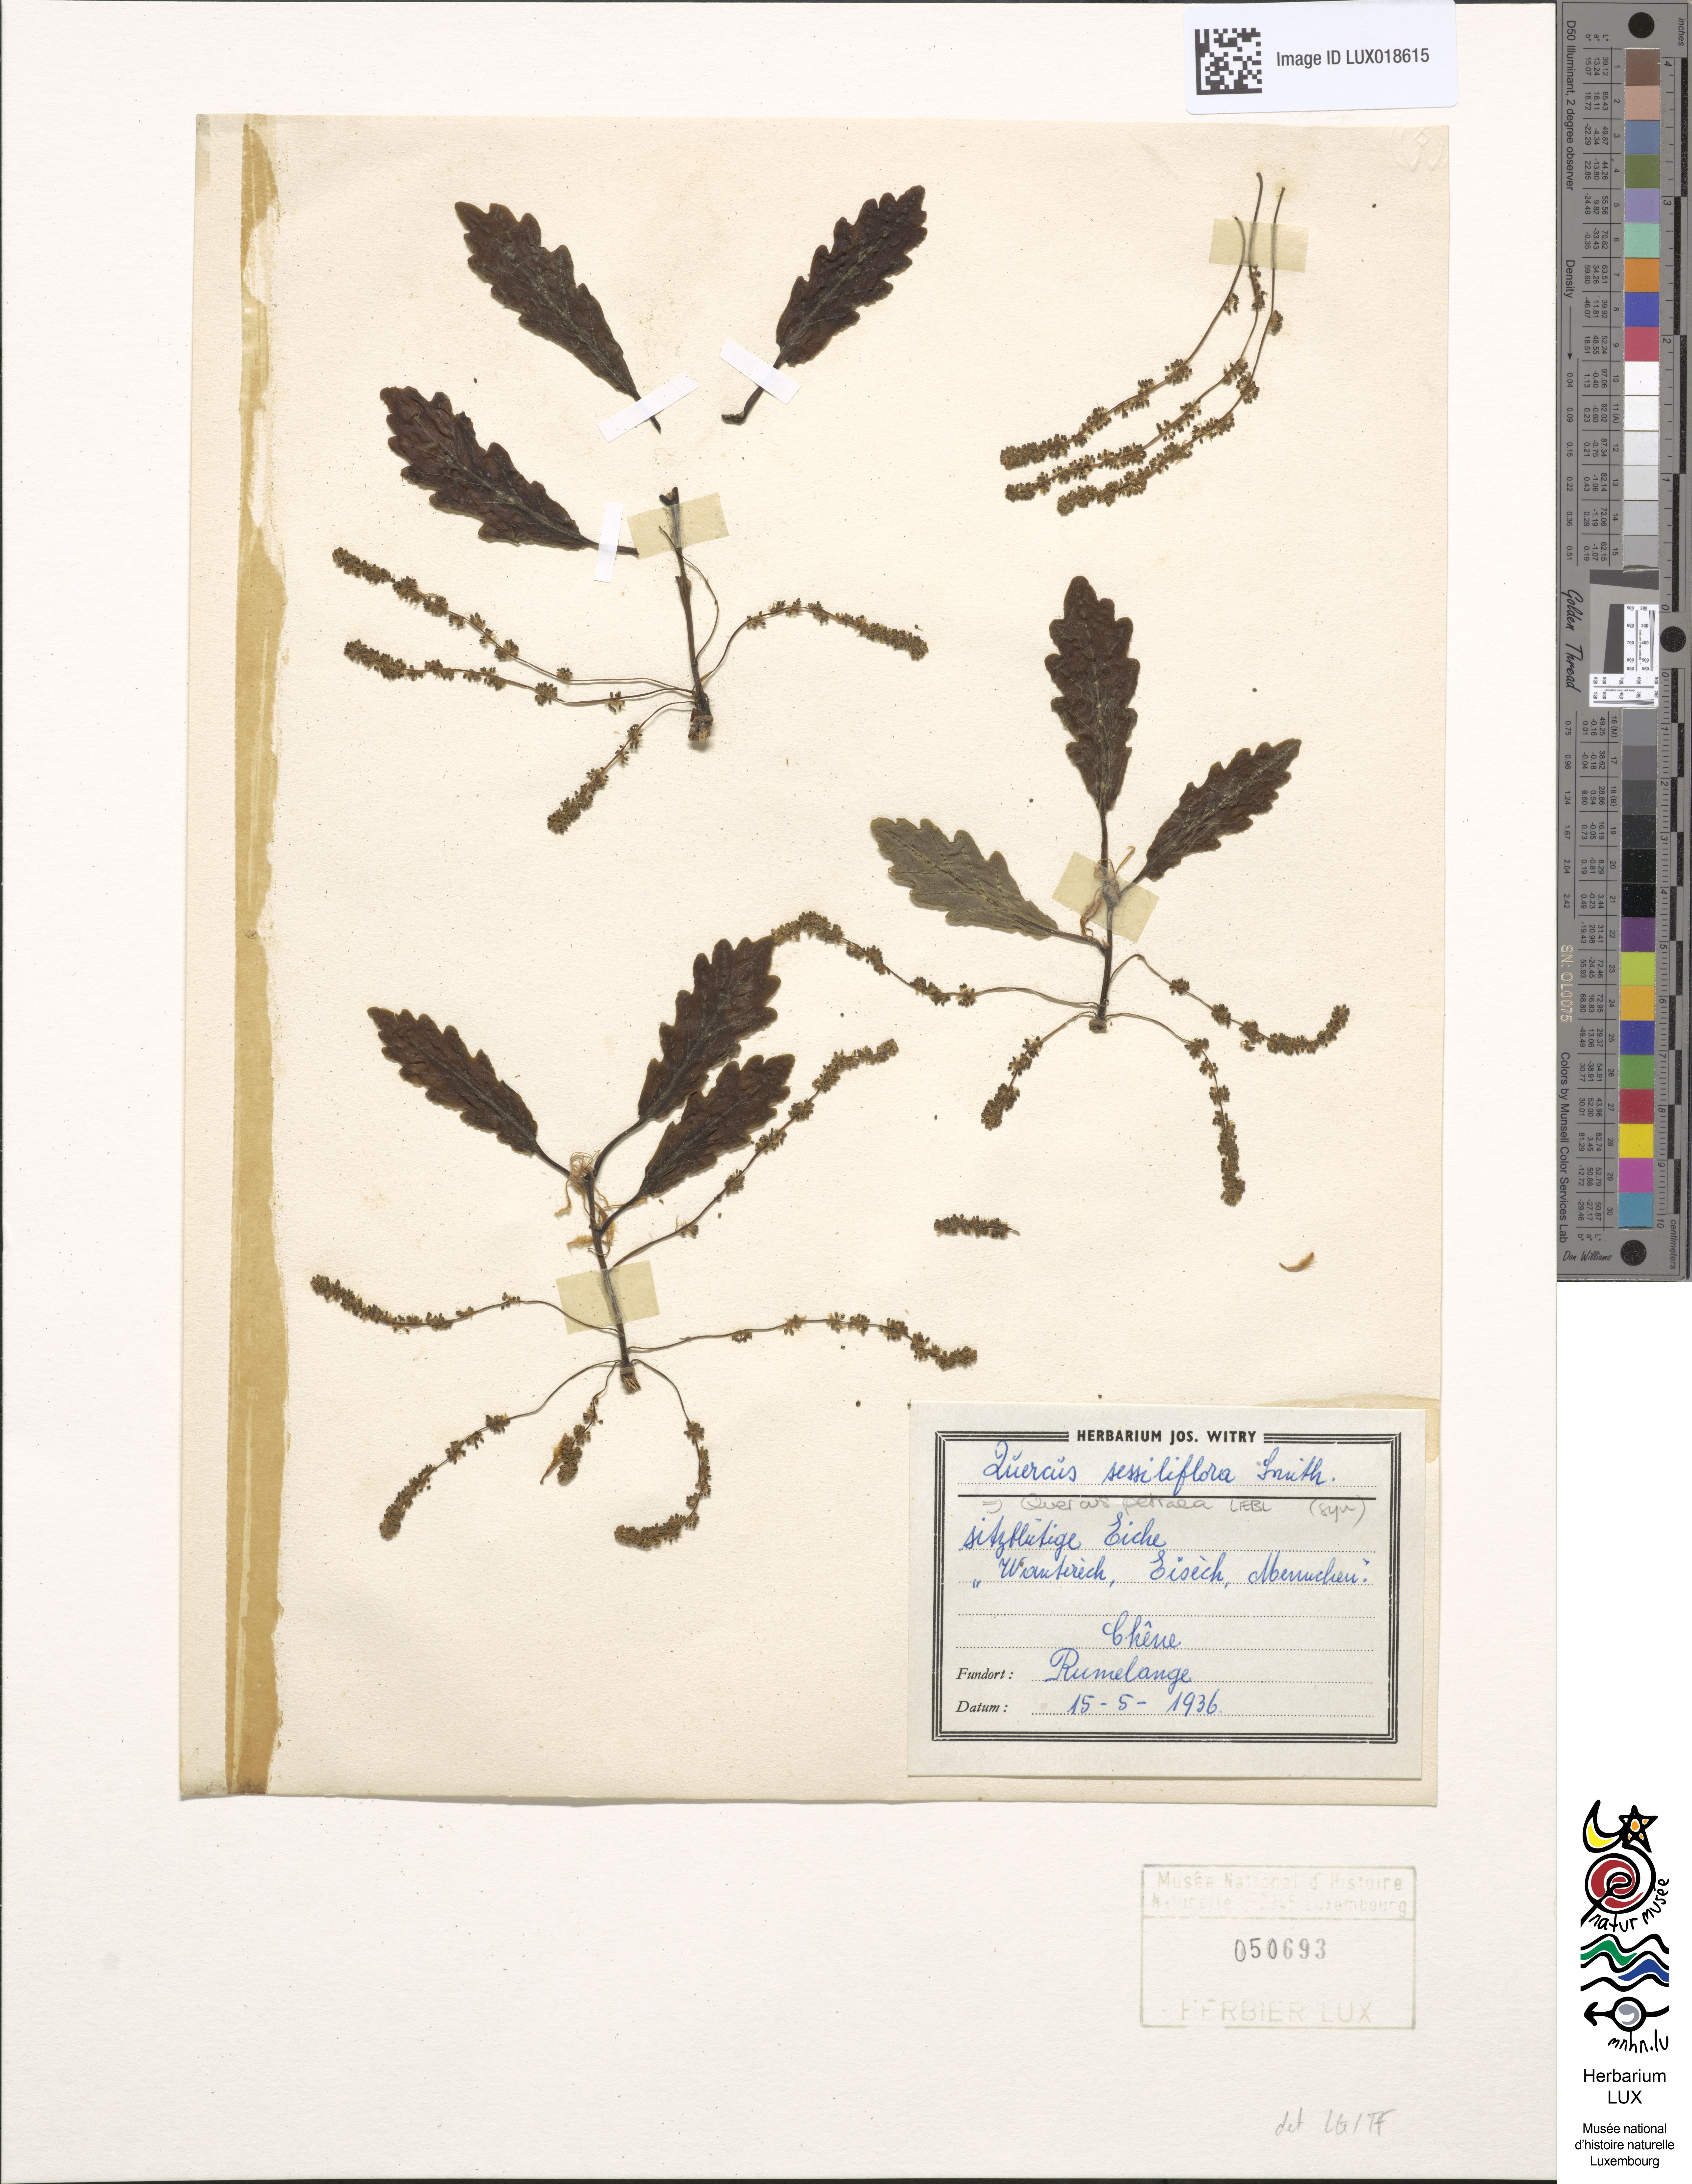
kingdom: Plantae
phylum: Tracheophyta
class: Magnoliopsida
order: Fagales
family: Fagaceae
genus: Quercus
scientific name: Quercus petraea
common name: Sessile oak
